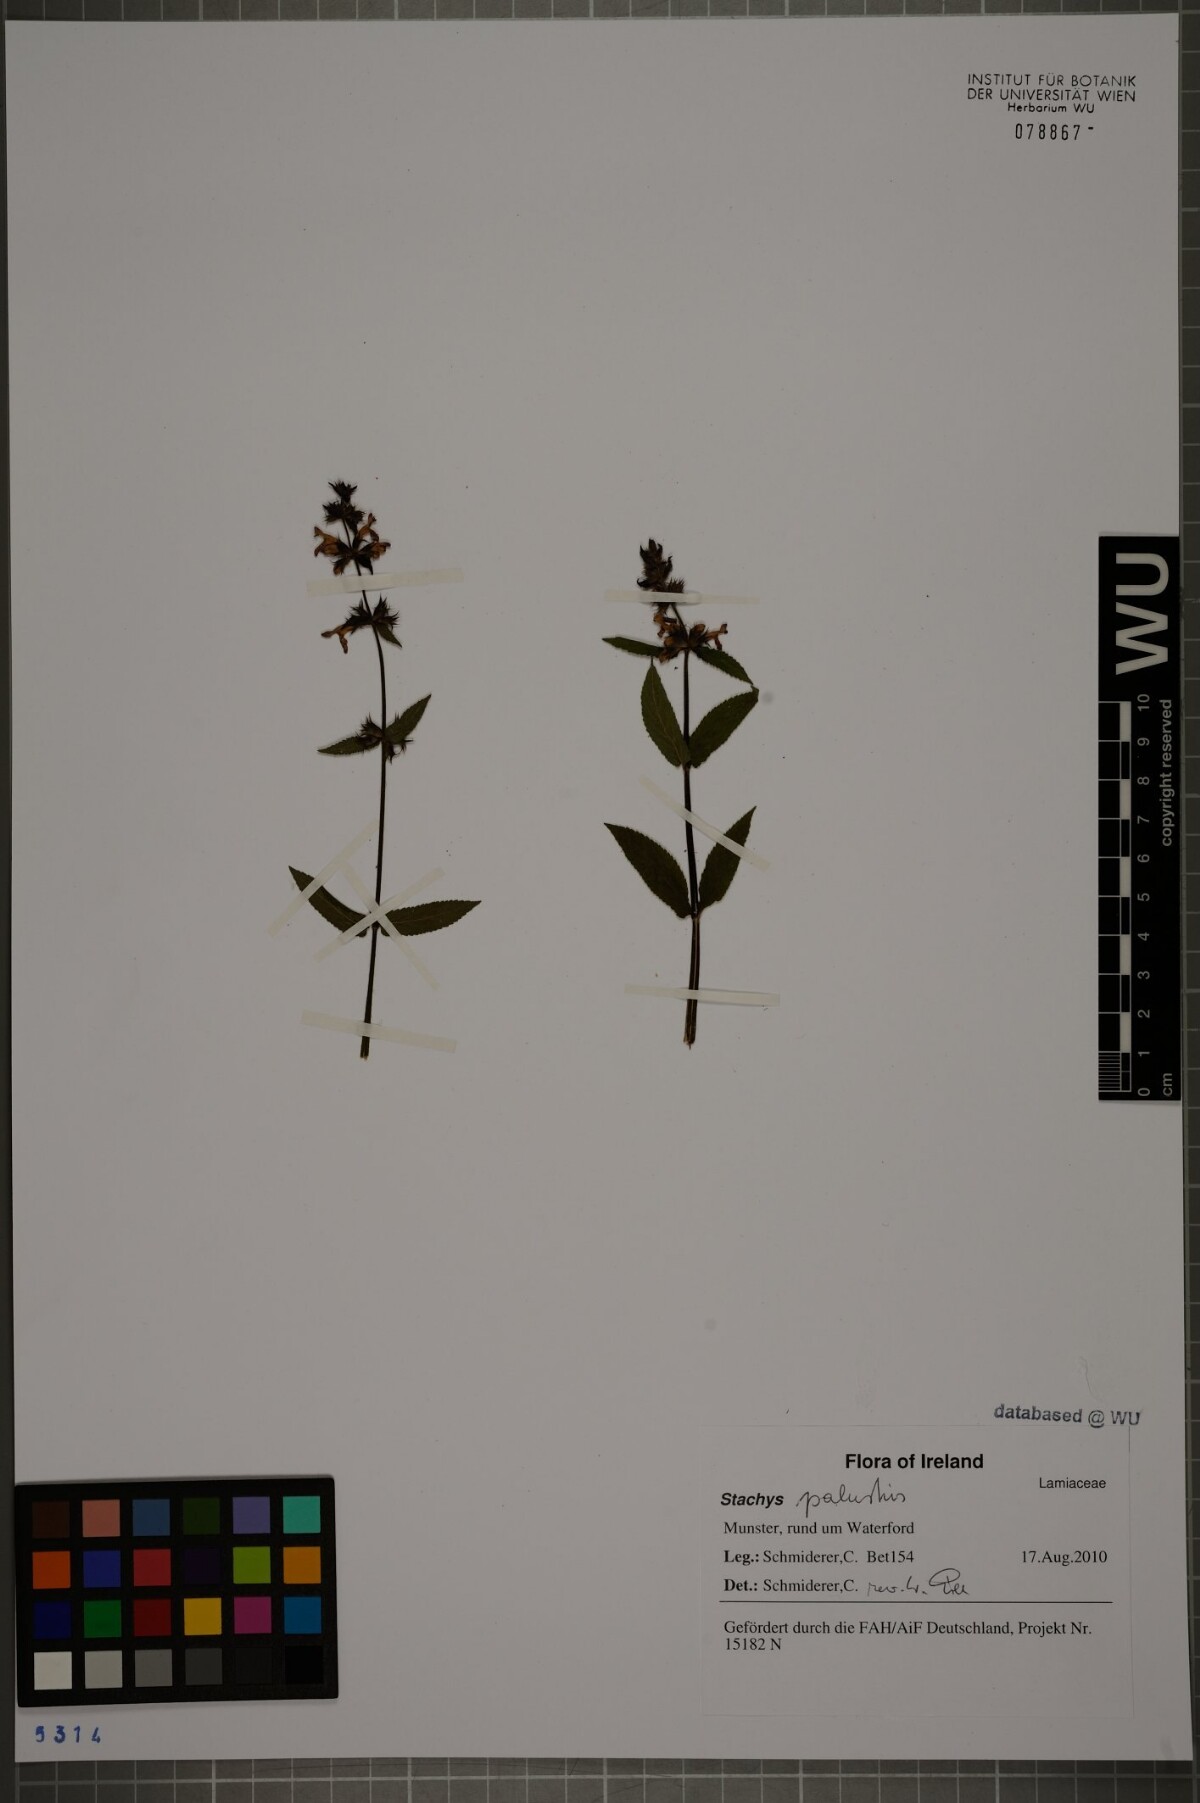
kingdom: Plantae
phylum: Tracheophyta
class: Magnoliopsida
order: Lamiales
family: Lamiaceae
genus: Stachys
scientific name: Stachys palustris
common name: Marsh woundwort
